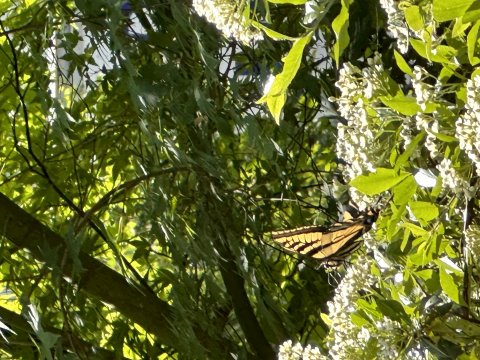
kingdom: Animalia
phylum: Arthropoda
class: Insecta
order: Lepidoptera
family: Papilionidae
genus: Pterourus
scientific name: Pterourus rutulus
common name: Western Tiger Swallowtail
